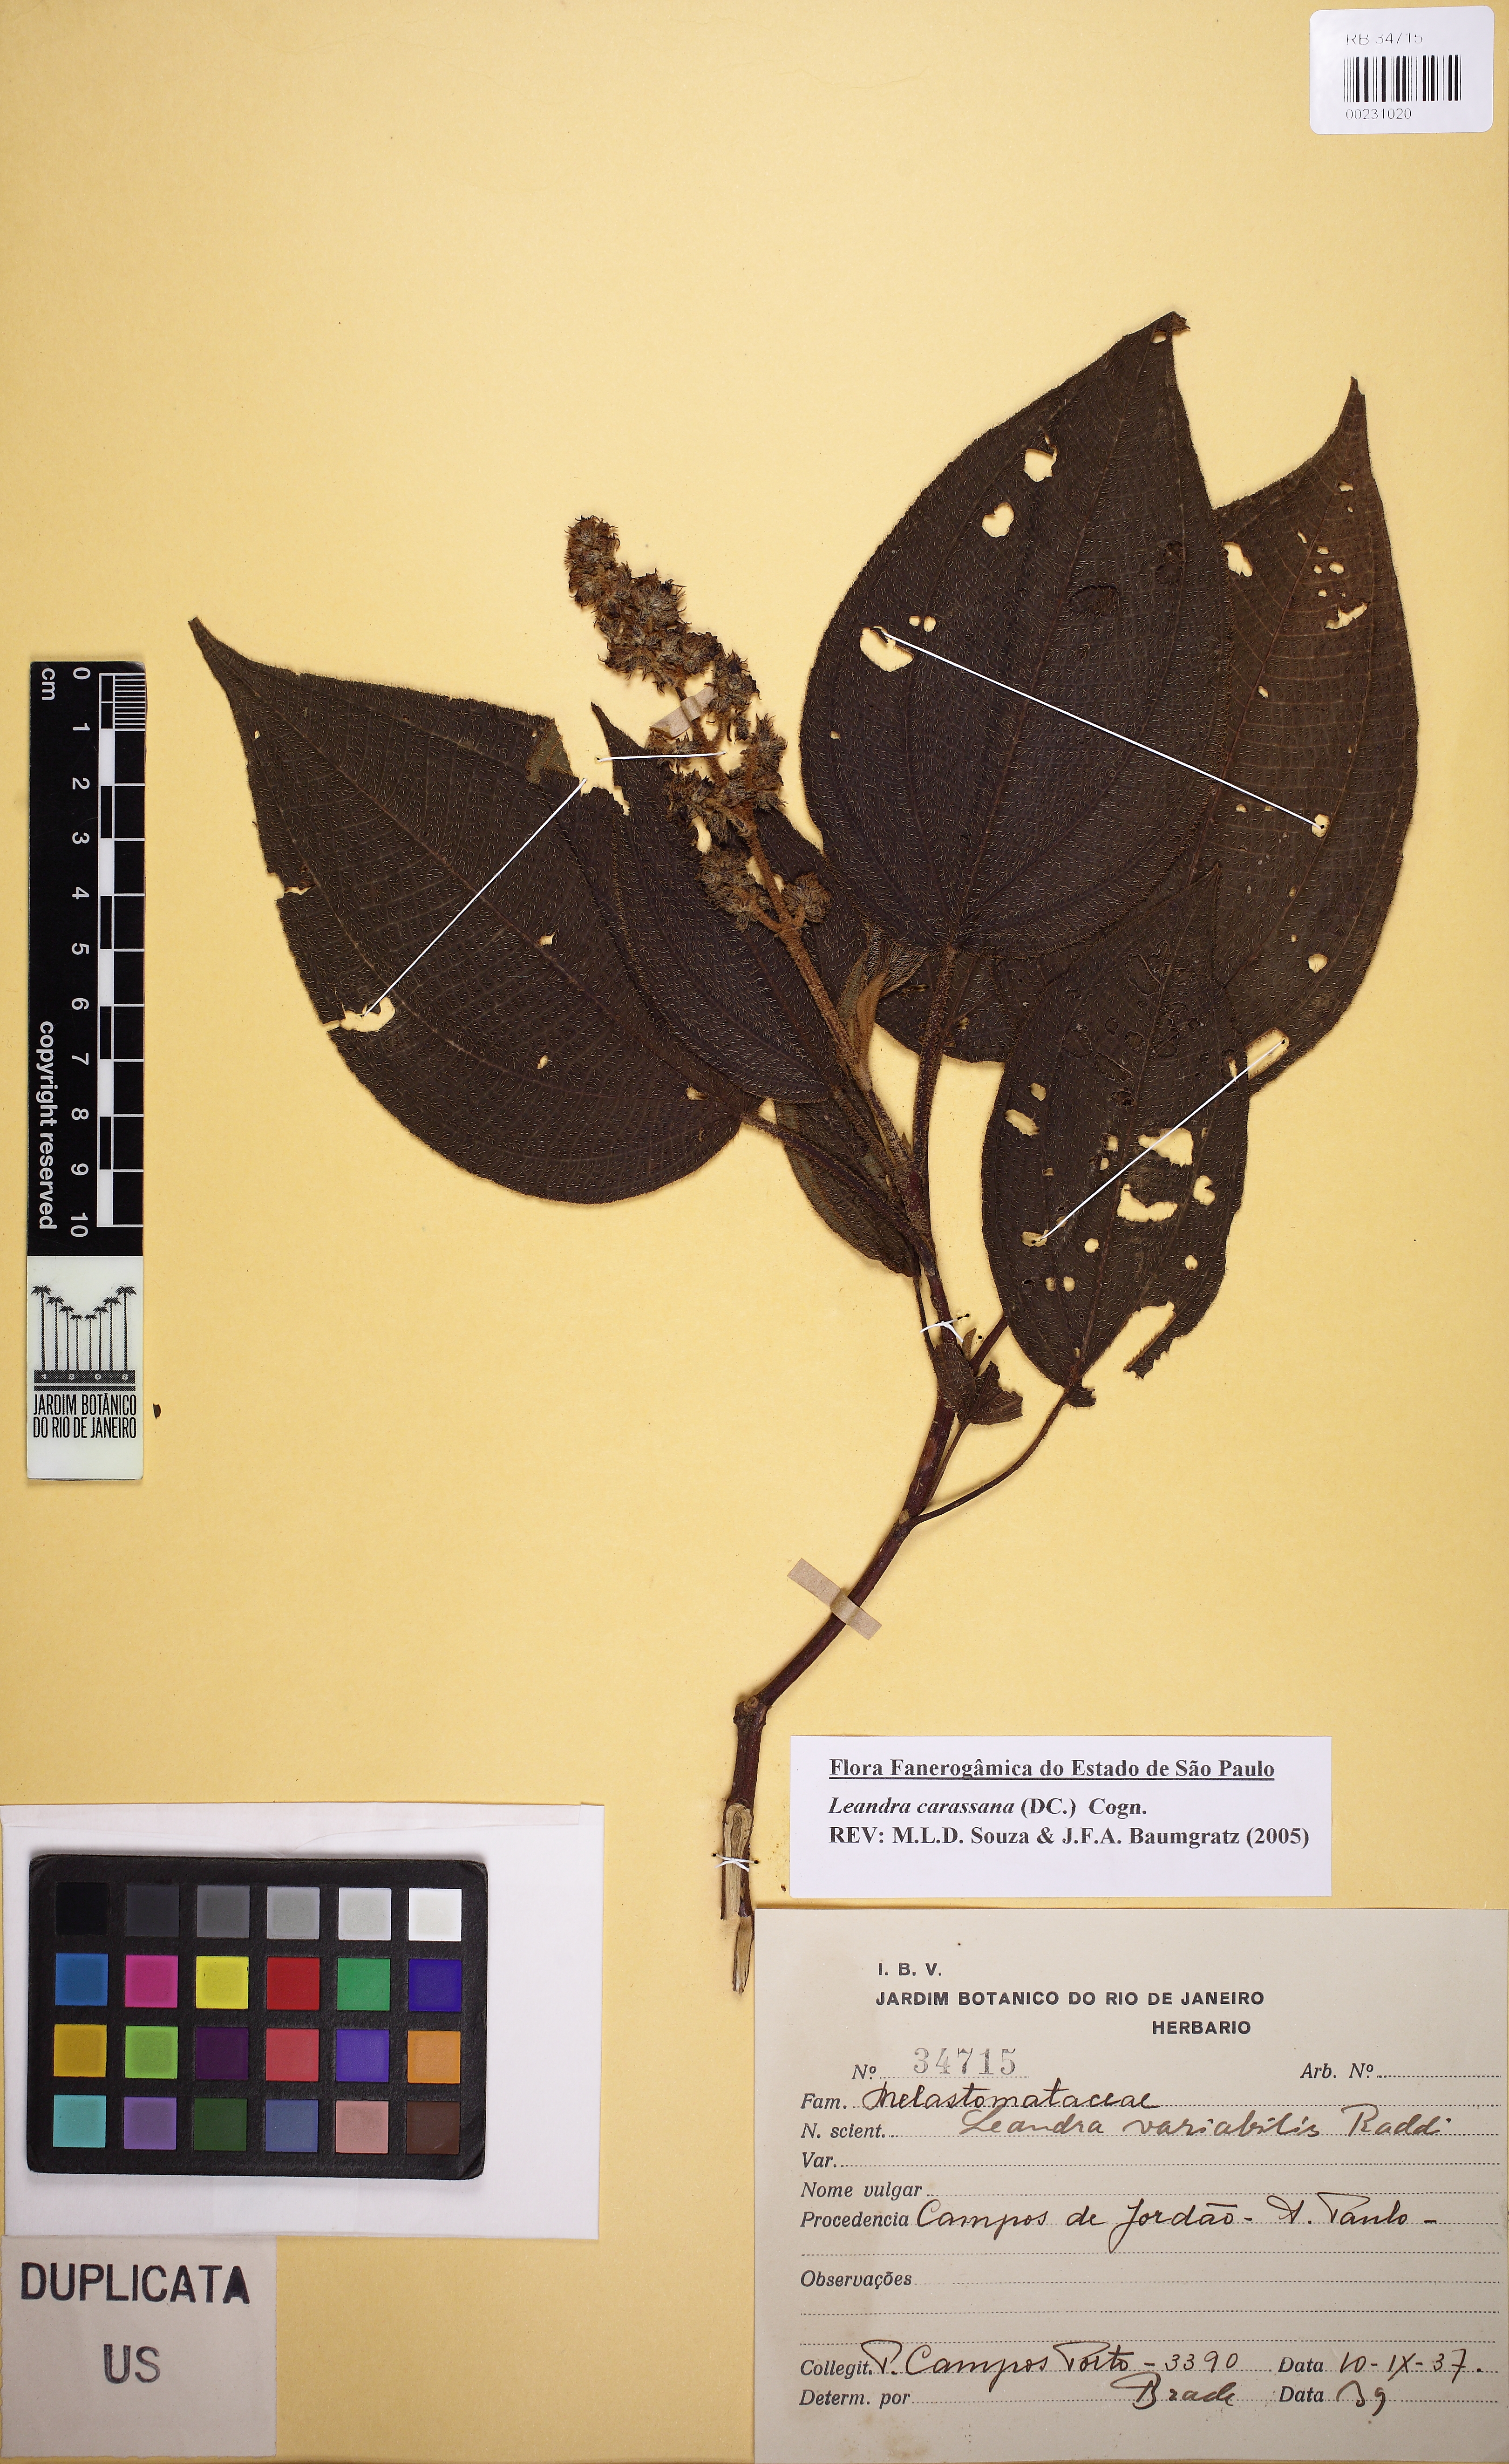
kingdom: Plantae
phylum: Tracheophyta
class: Magnoliopsida
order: Myrtales
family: Melastomataceae
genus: Miconia
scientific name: Miconia dasytricha
